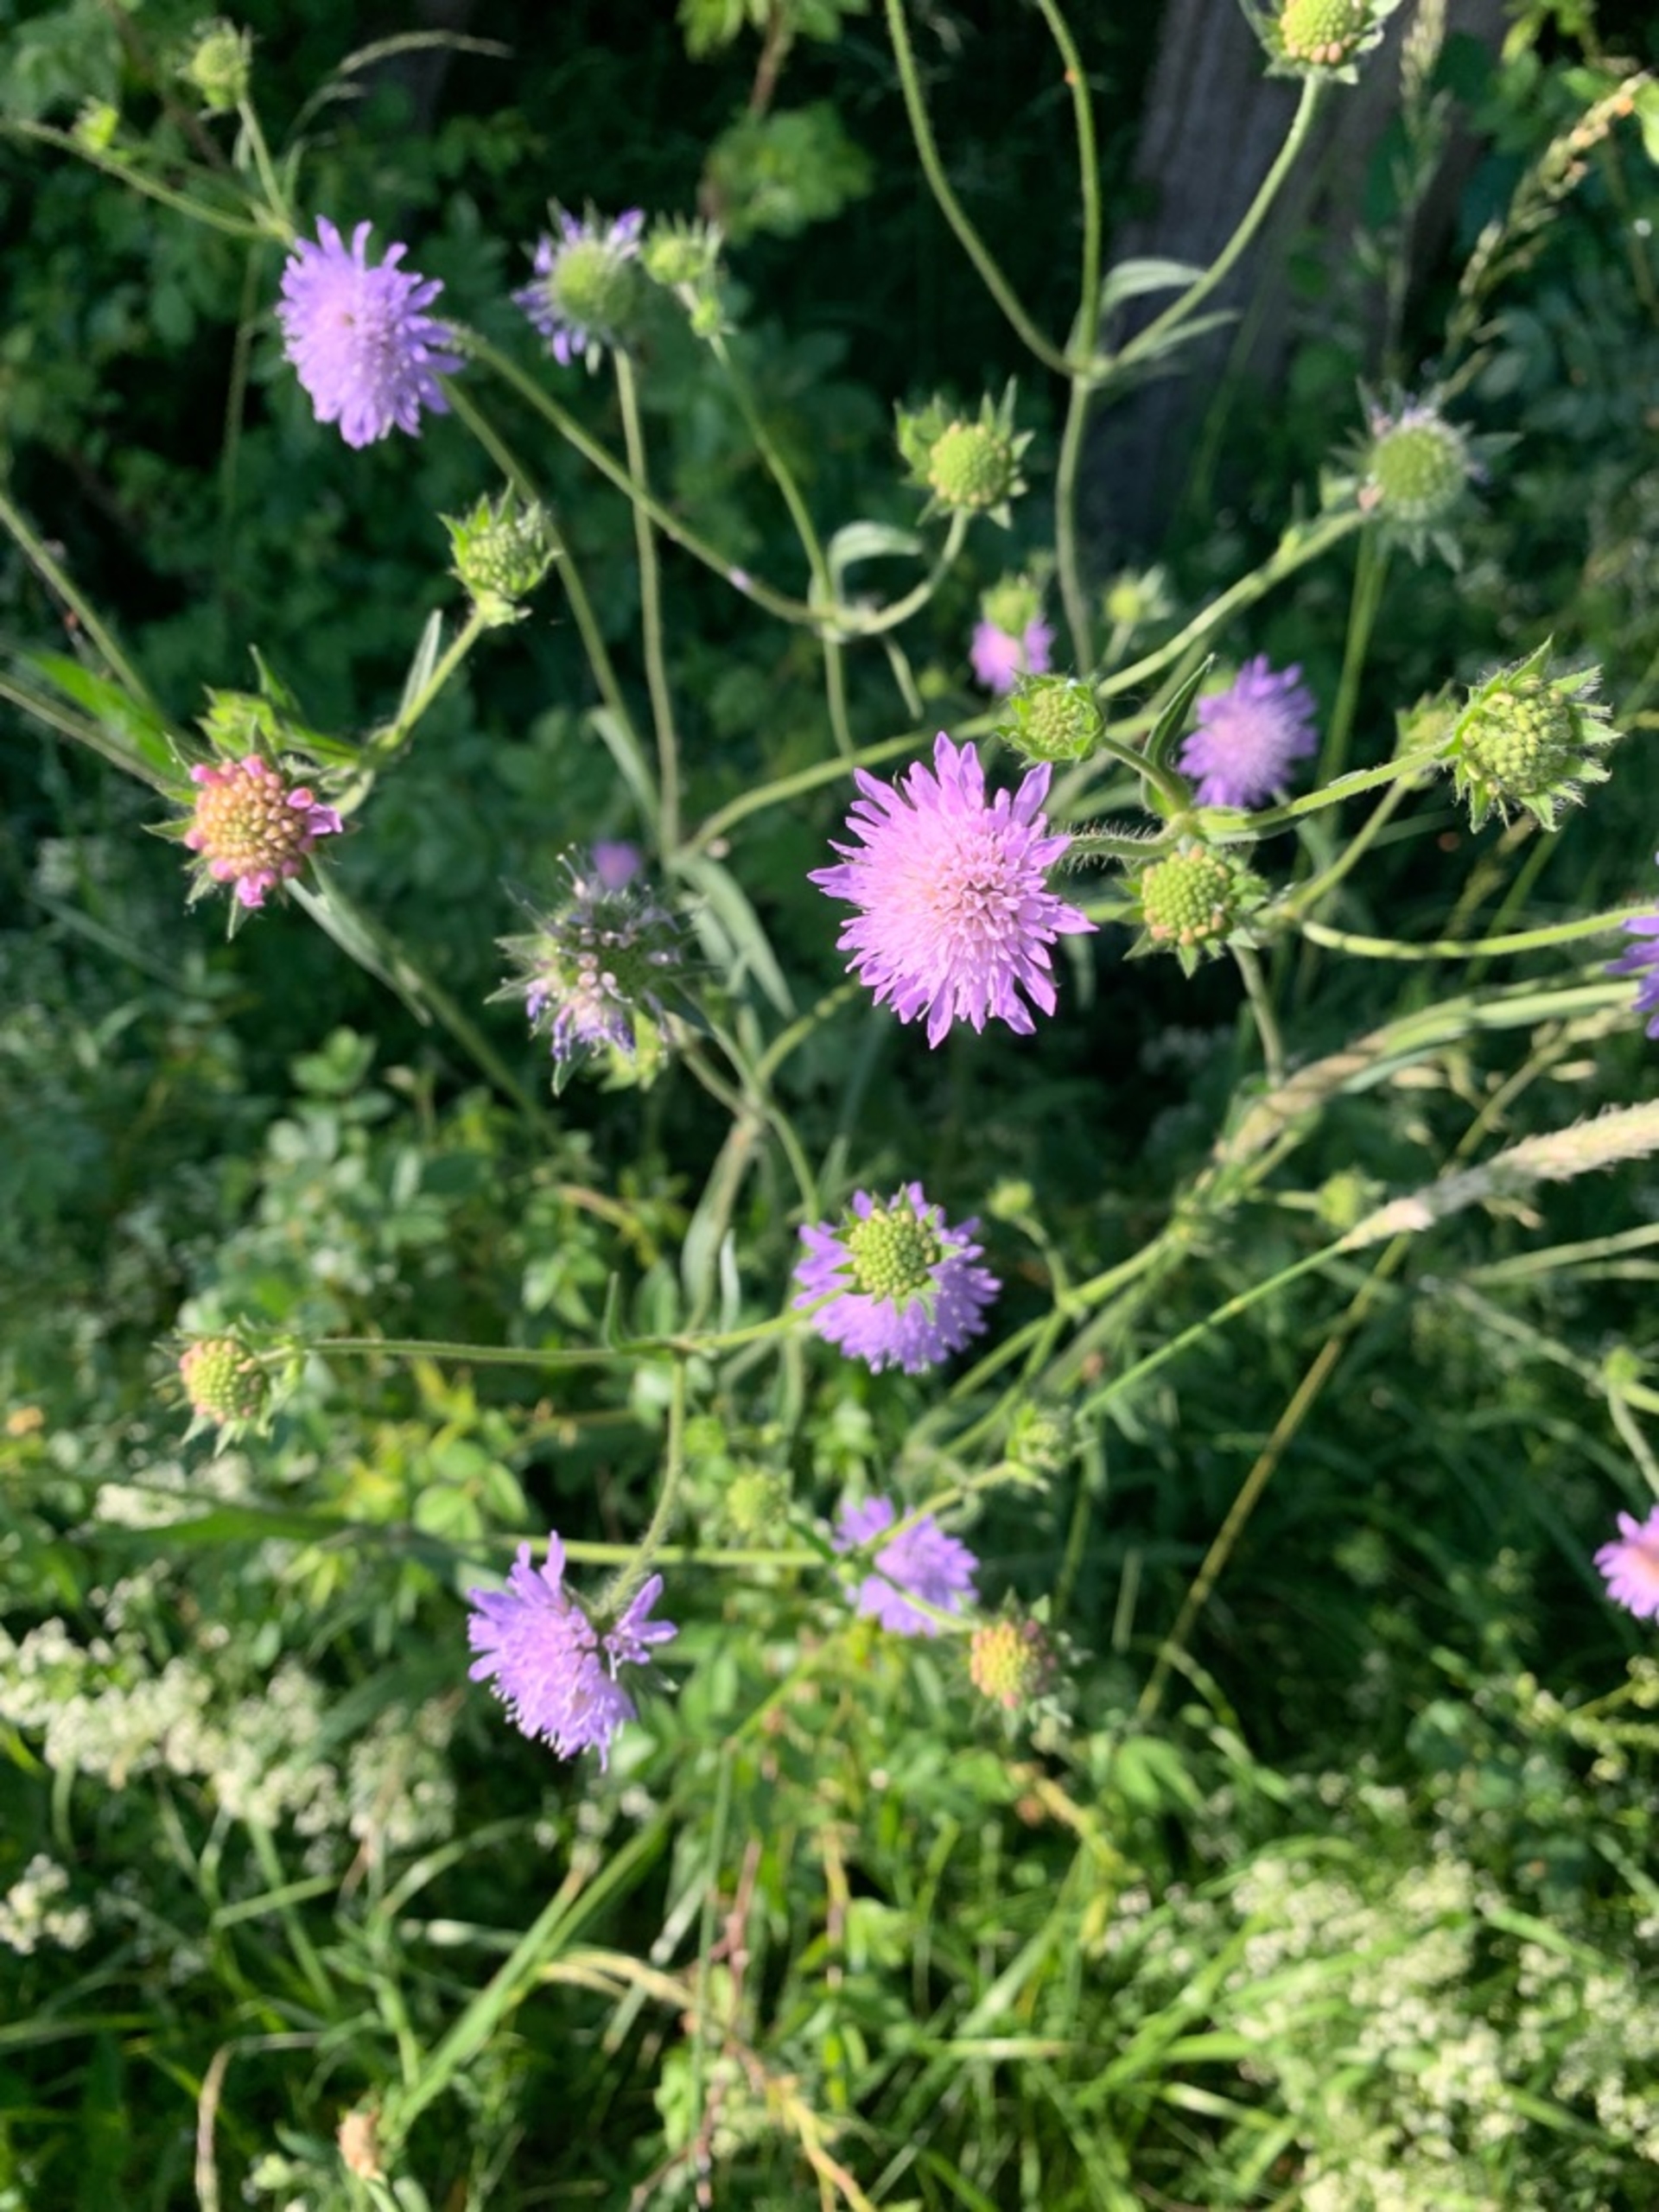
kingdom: Plantae
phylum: Tracheophyta
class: Magnoliopsida
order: Dipsacales
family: Caprifoliaceae
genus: Knautia
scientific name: Knautia arvensis
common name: Blåhat
